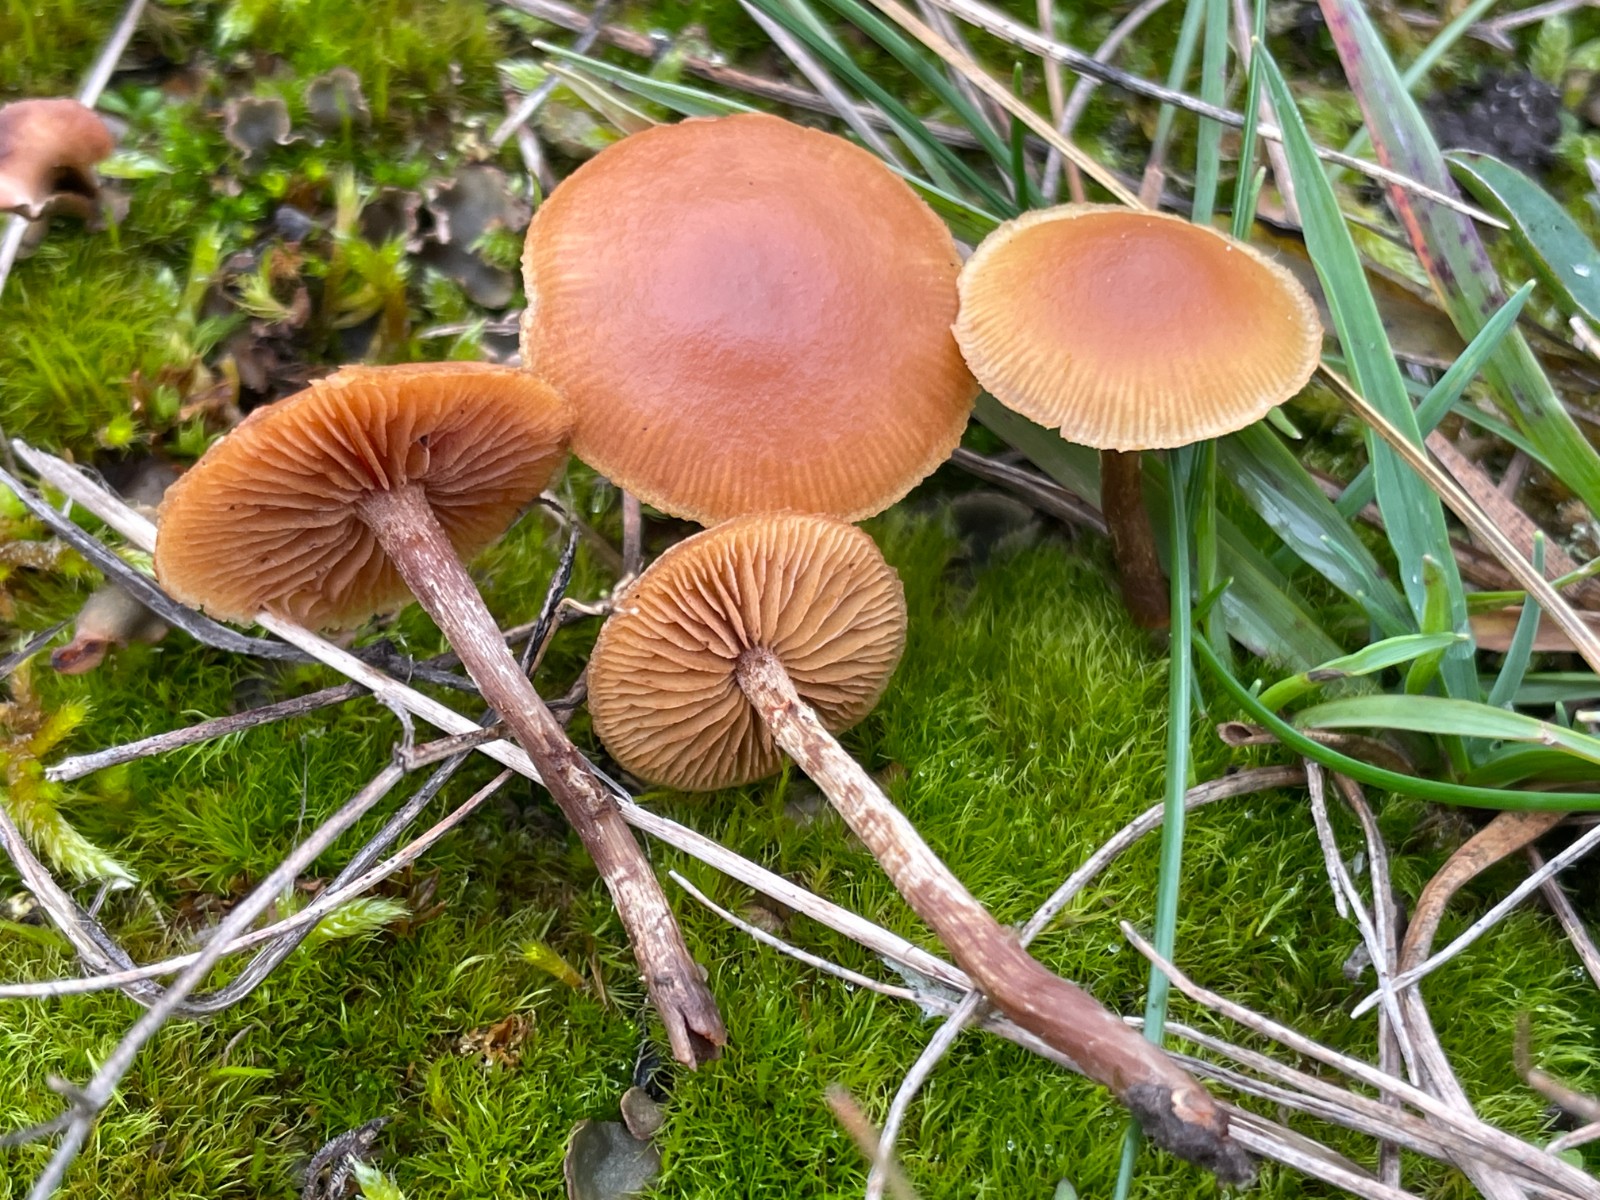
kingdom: Fungi
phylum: Basidiomycota
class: Agaricomycetes
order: Agaricales
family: Hymenogastraceae
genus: Galerina
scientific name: Galerina esteve-raventosii
